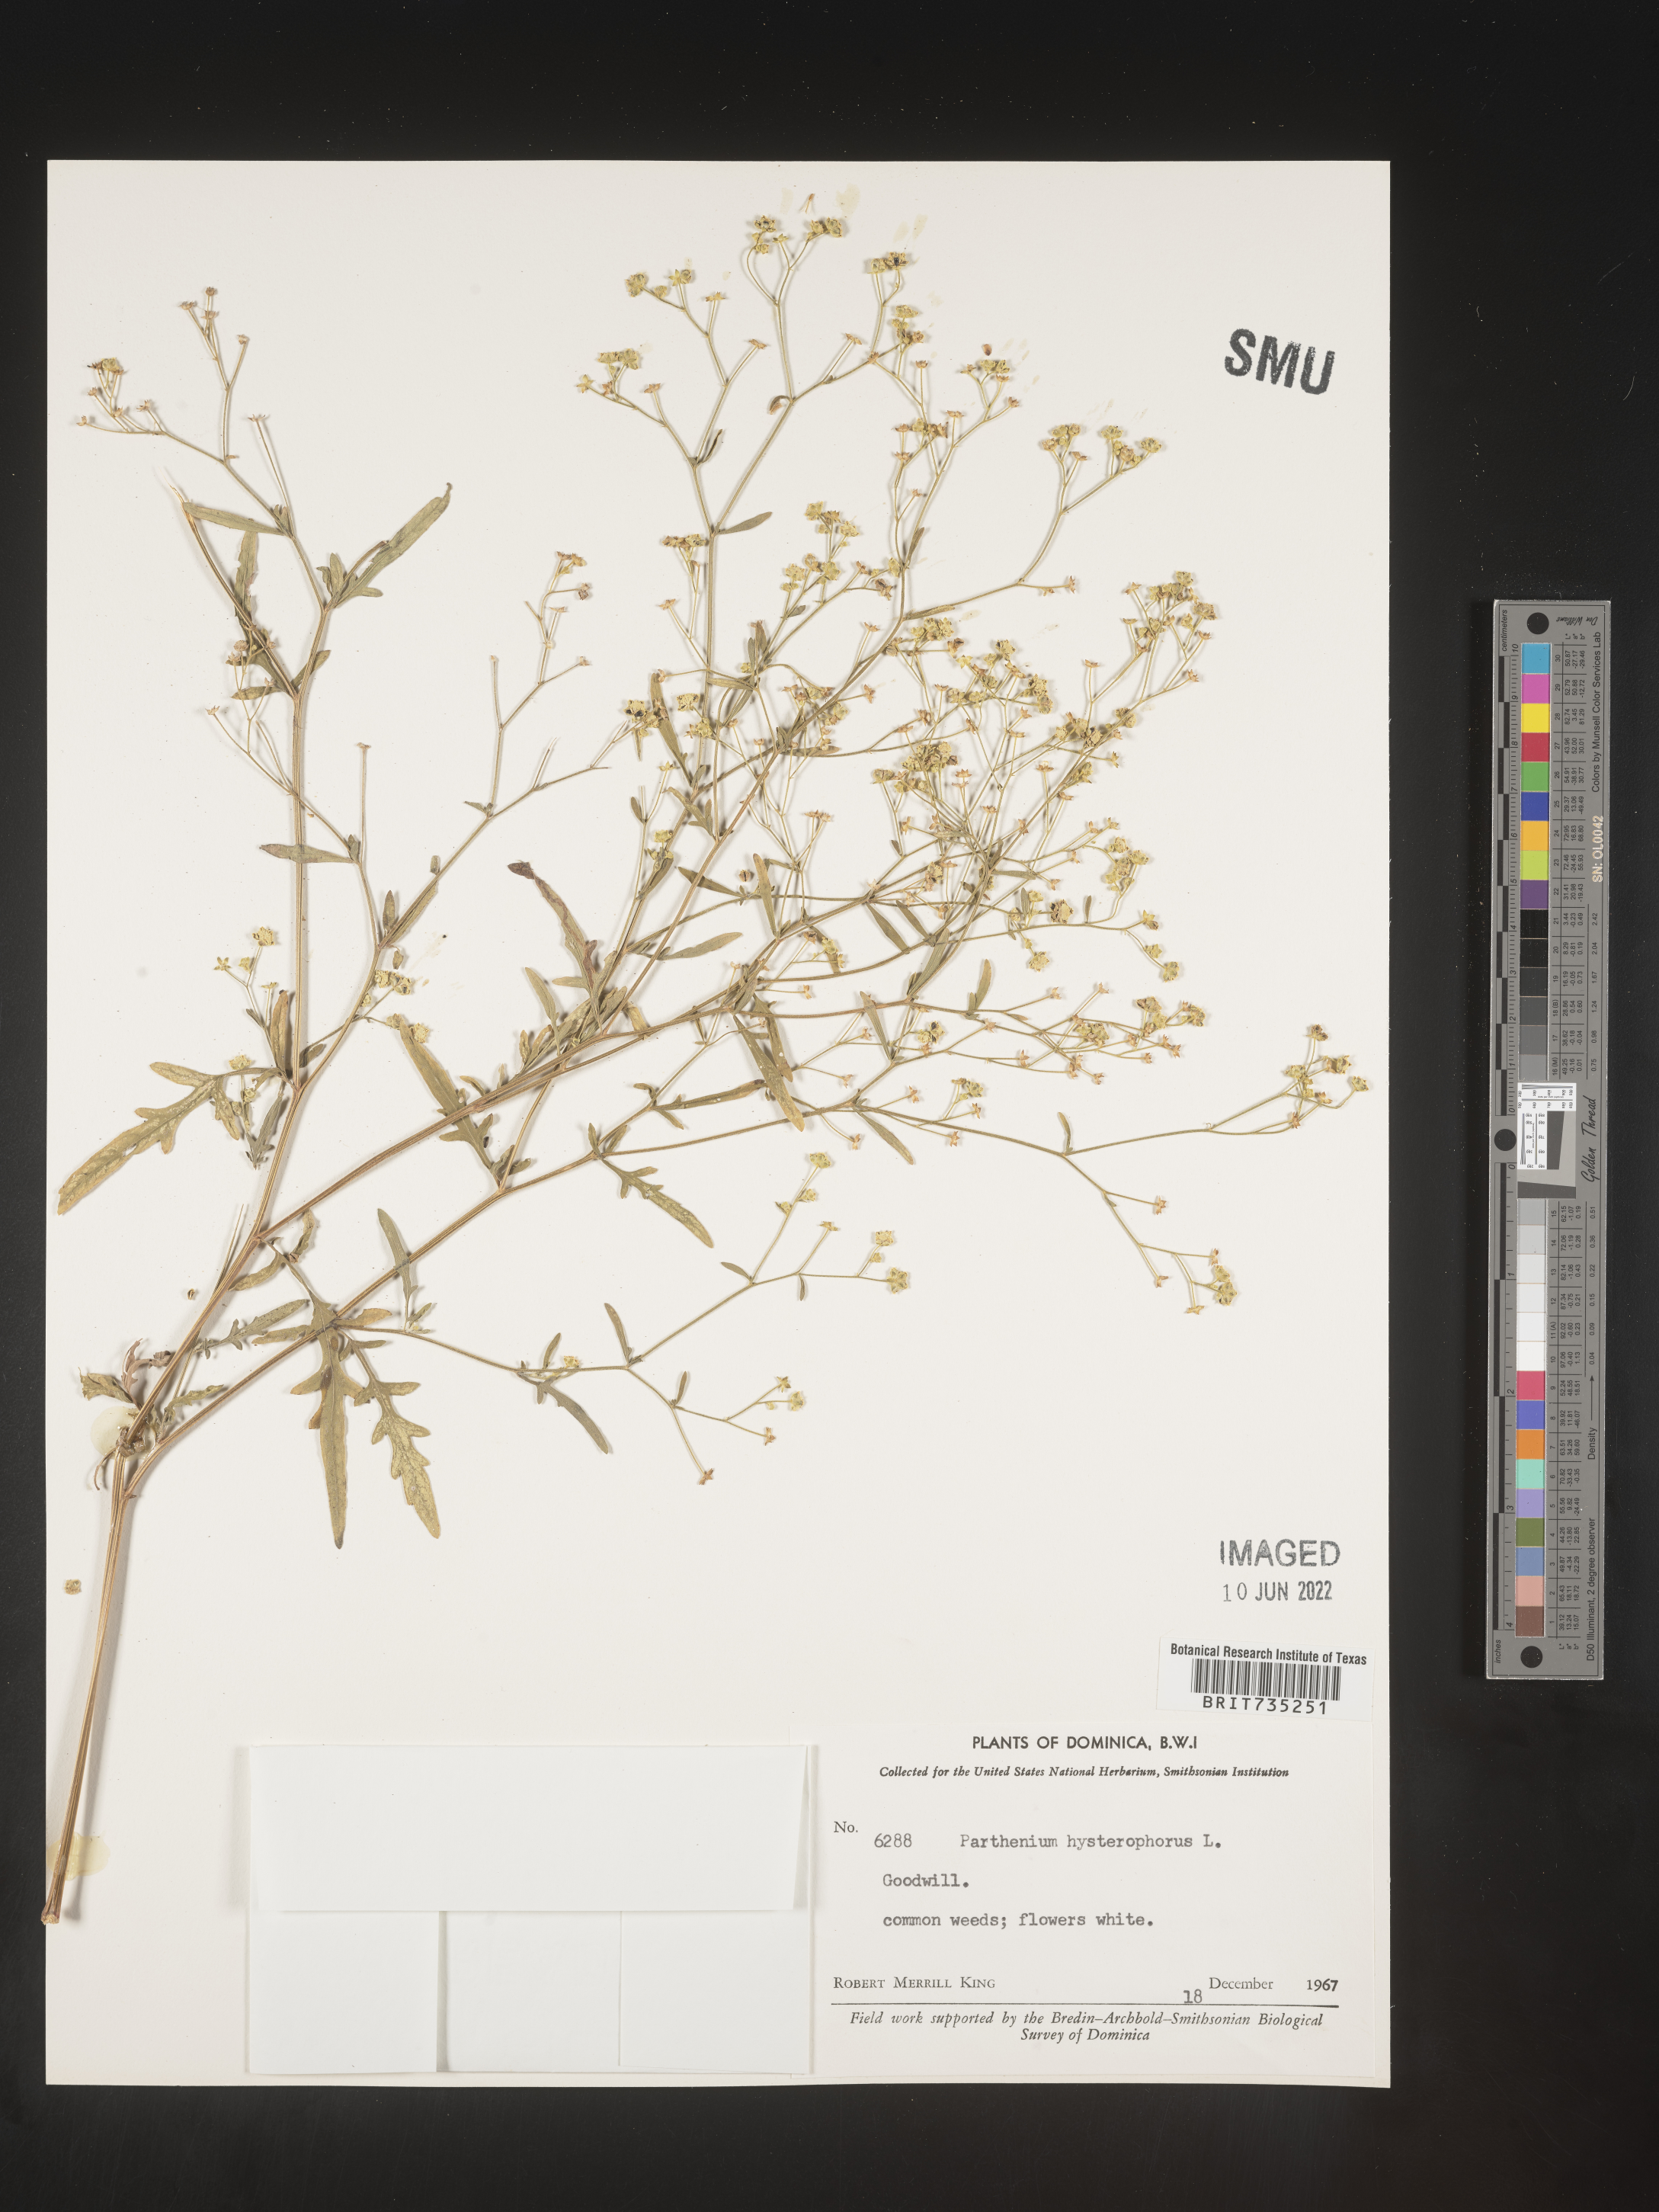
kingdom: Plantae
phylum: Tracheophyta
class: Magnoliopsida
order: Asterales
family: Asteraceae
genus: Parthenium
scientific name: Parthenium
